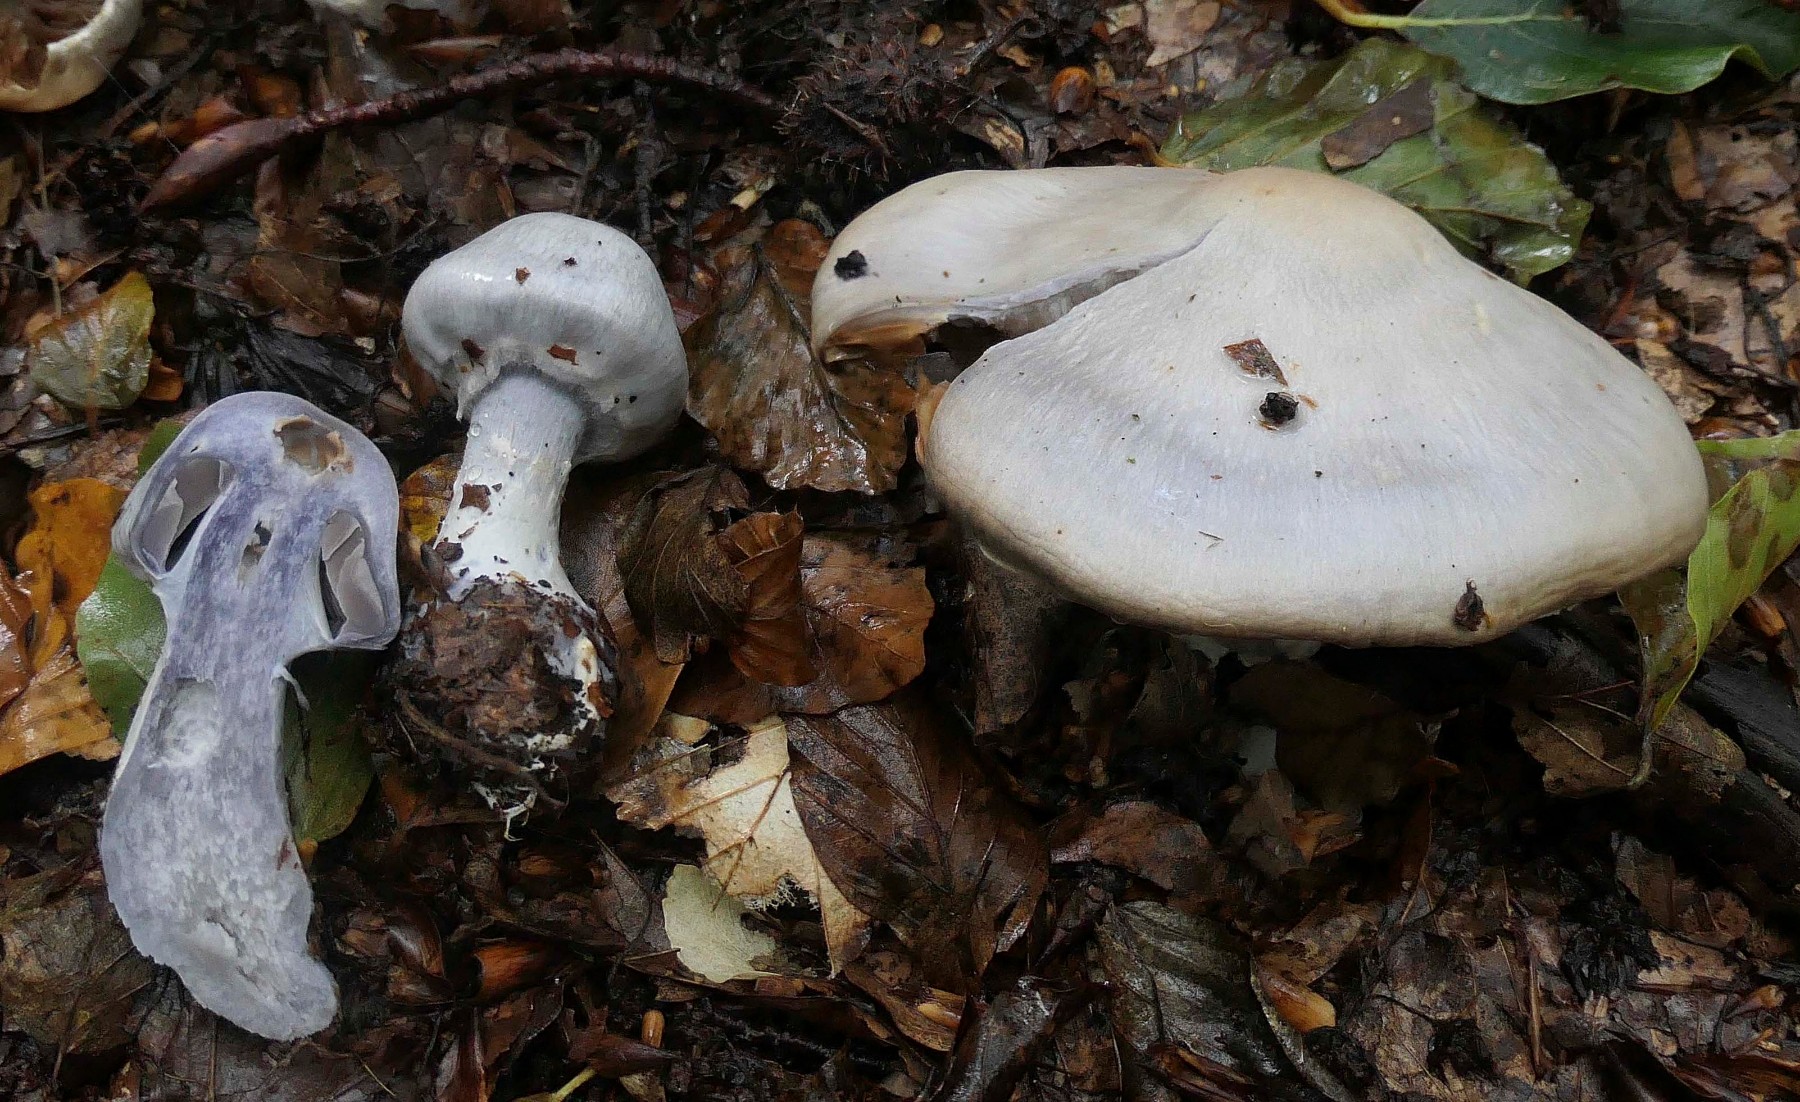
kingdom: Fungi
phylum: Basidiomycota
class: Agaricomycetes
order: Agaricales
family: Cortinariaceae
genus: Cortinarius
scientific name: Cortinarius alboviolaceus
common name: lysviolet slørhat
